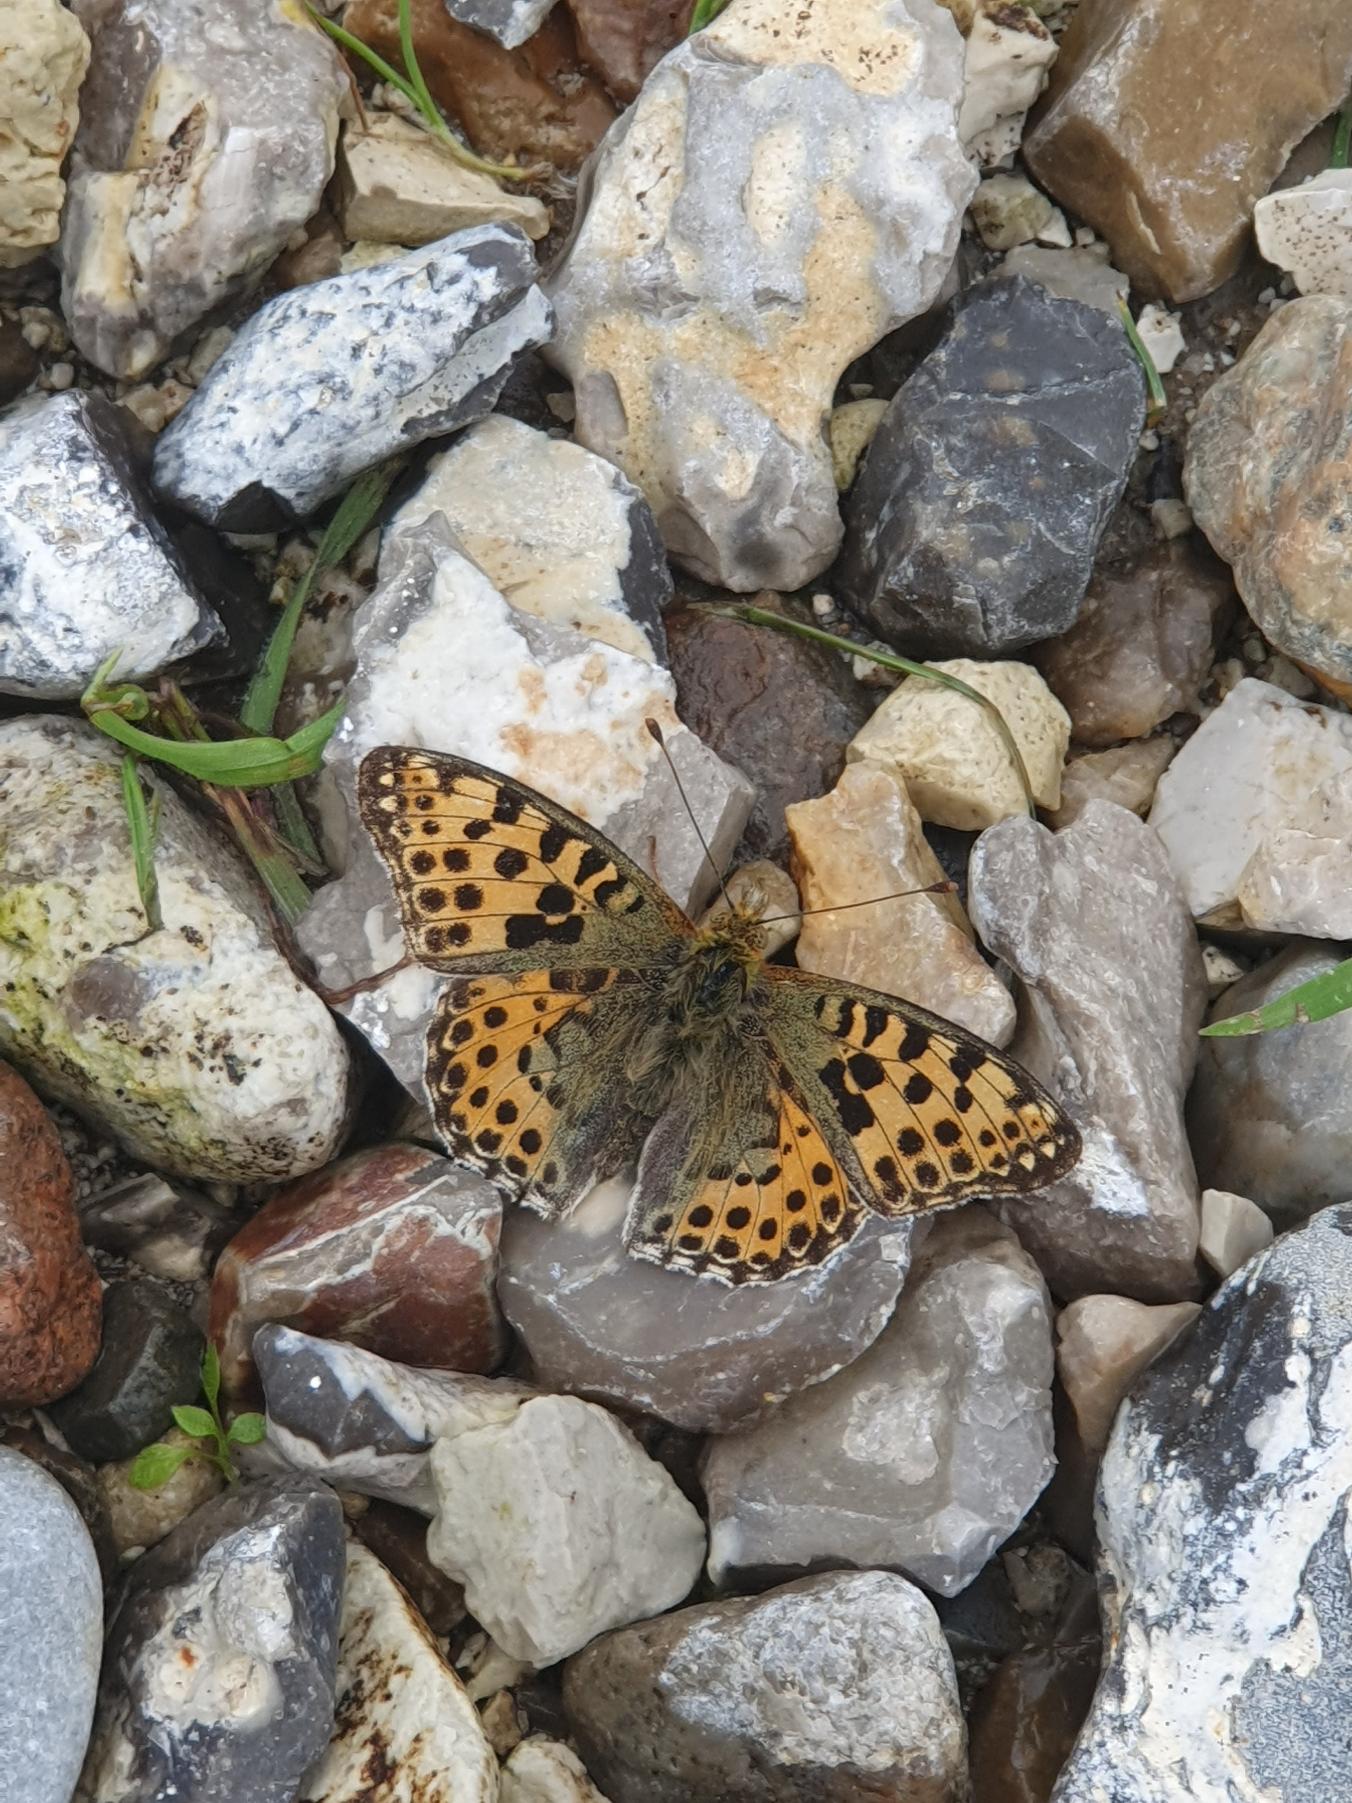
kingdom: Animalia
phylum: Arthropoda
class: Insecta
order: Lepidoptera
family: Nymphalidae
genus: Issoria
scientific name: Issoria lathonia
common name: Storplettet perlemorsommerfugl
